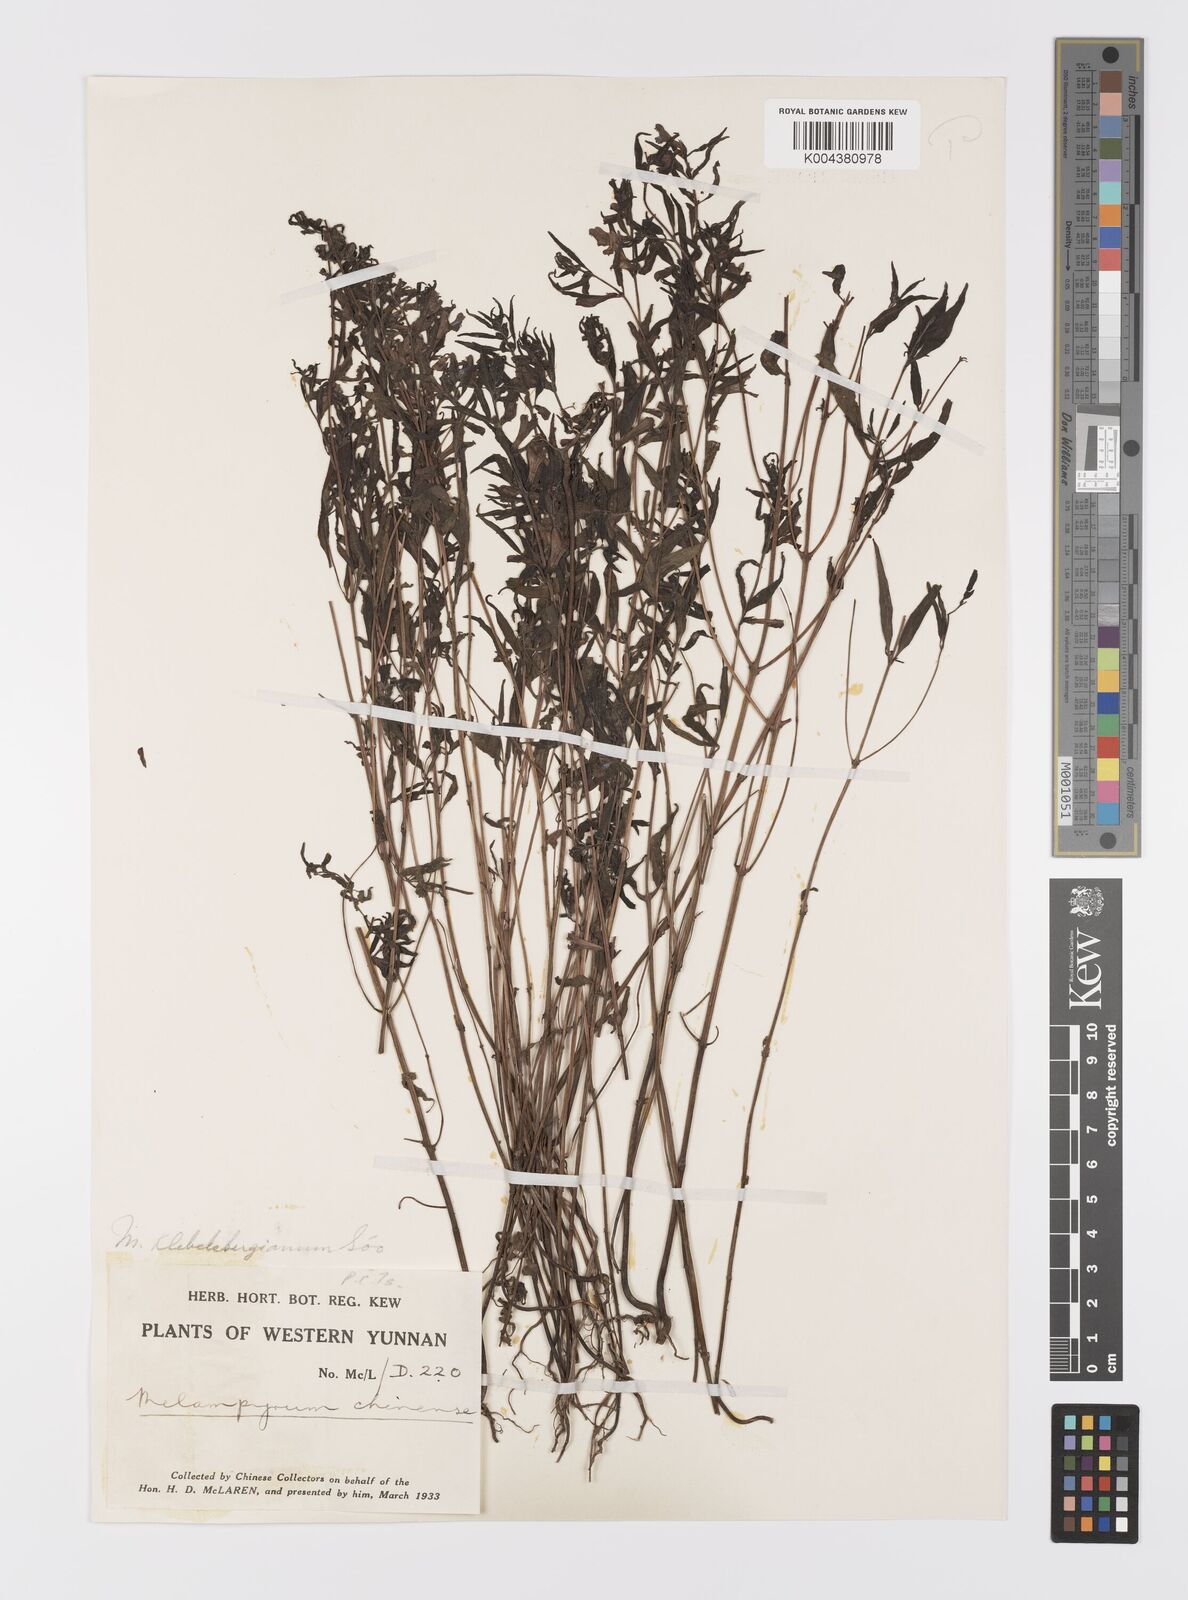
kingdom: Plantae
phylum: Tracheophyta
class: Magnoliopsida
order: Lamiales
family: Orobanchaceae
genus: Melampyrum
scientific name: Melampyrum chinense
